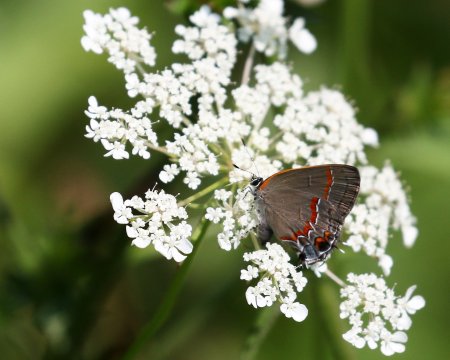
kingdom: Animalia
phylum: Arthropoda
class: Insecta
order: Lepidoptera
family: Lycaenidae
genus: Calycopis
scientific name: Calycopis cecrops
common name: Red-banded Hairstreak
